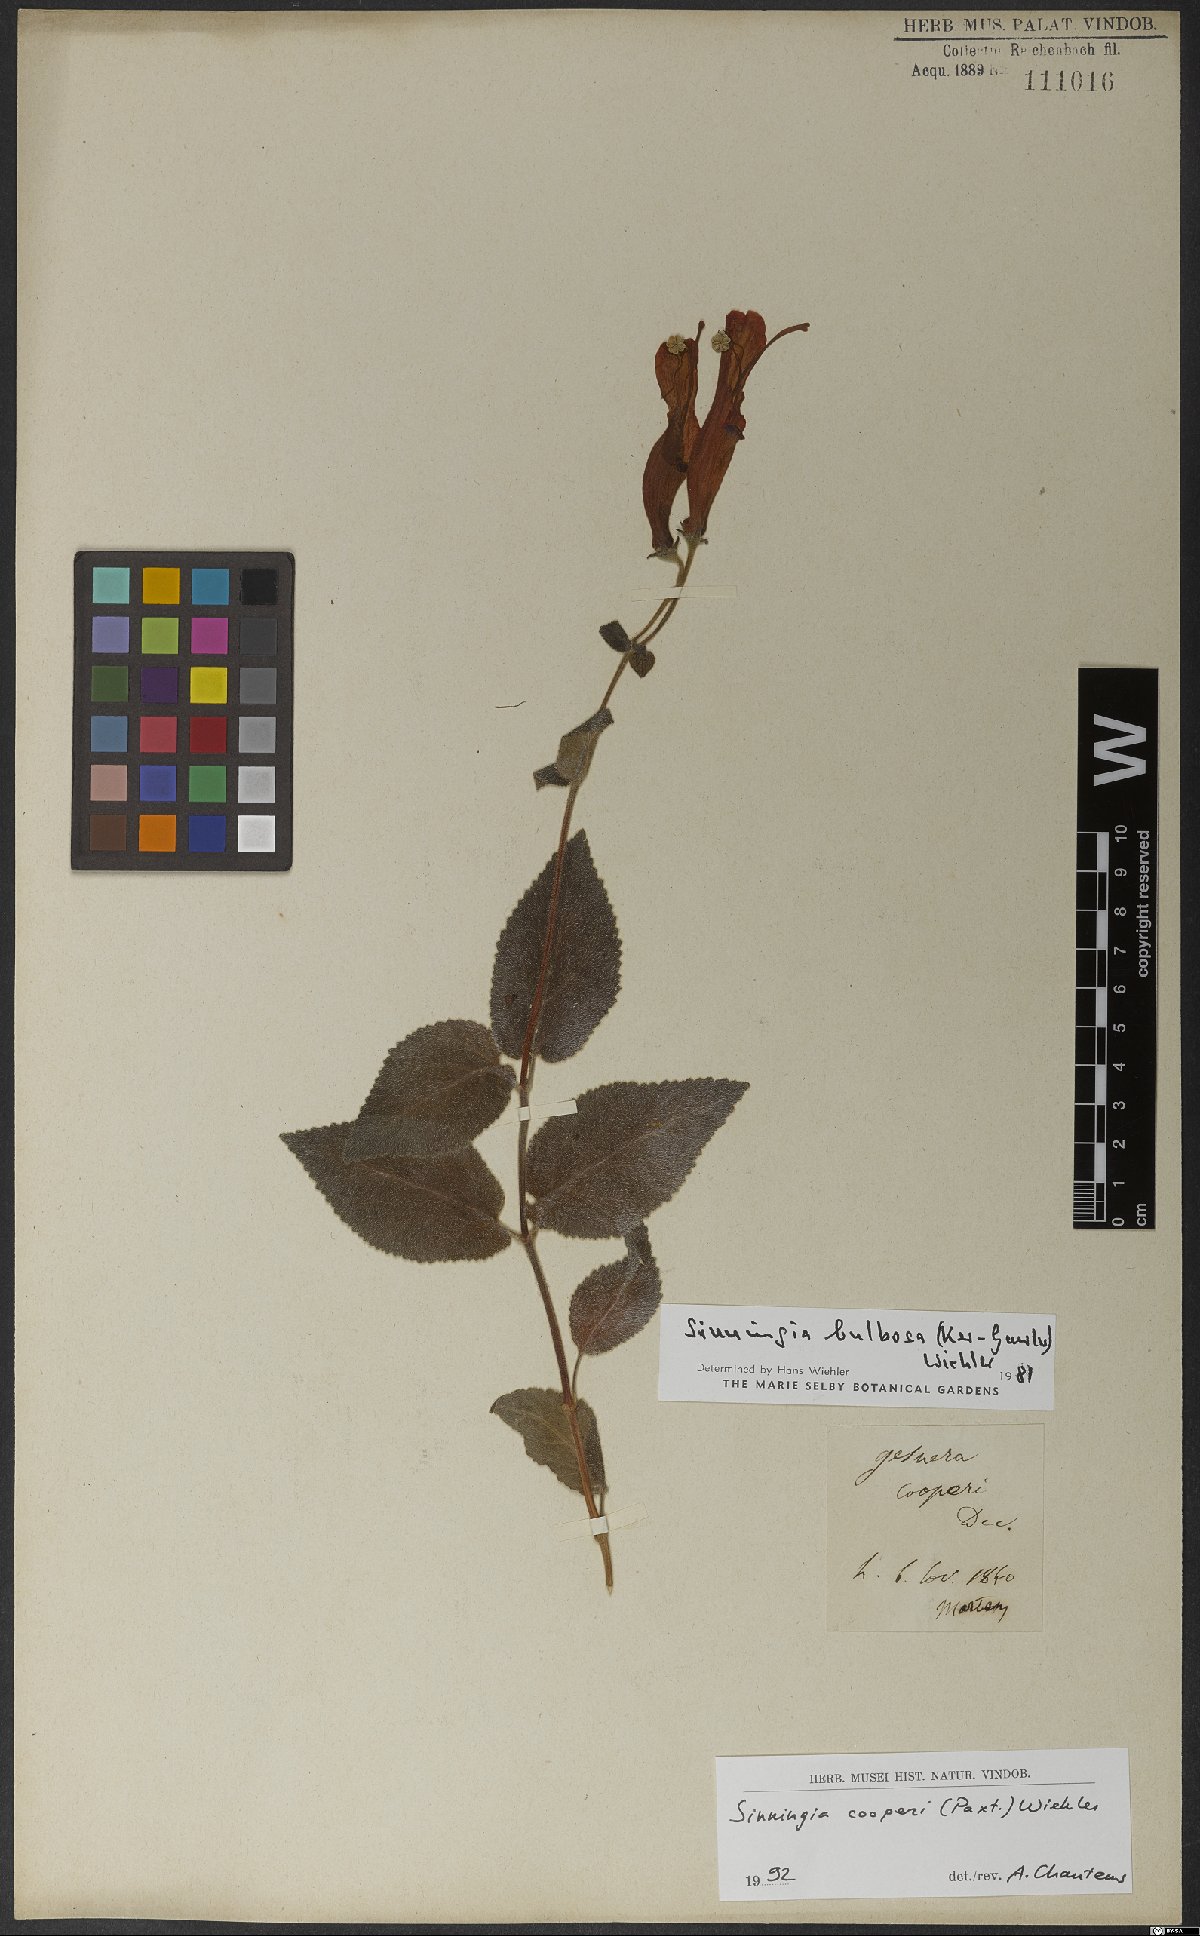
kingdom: Plantae
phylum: Tracheophyta
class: Magnoliopsida
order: Lamiales
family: Gesneriaceae
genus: Sinningia
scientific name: Sinningia cooperi
